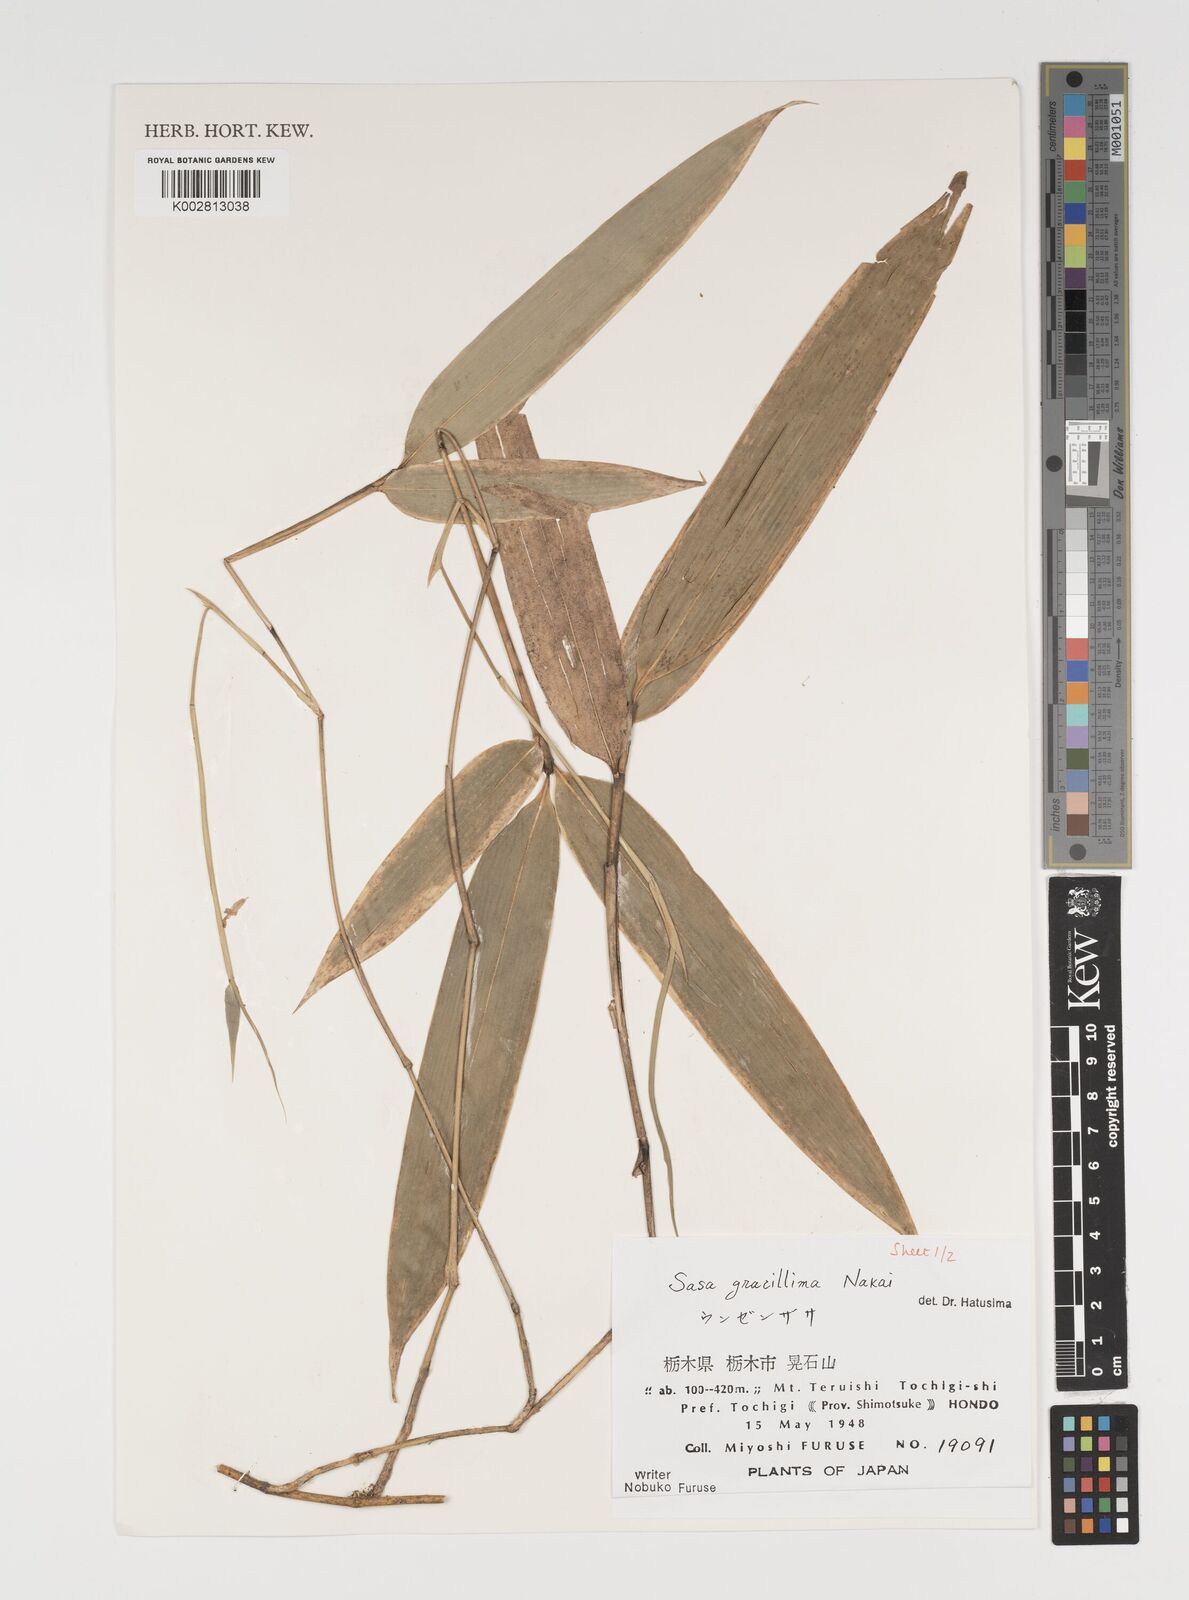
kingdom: Plantae
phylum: Tracheophyta
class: Liliopsida
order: Poales
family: Poaceae
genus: Sasa
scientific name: Sasa gracillima
